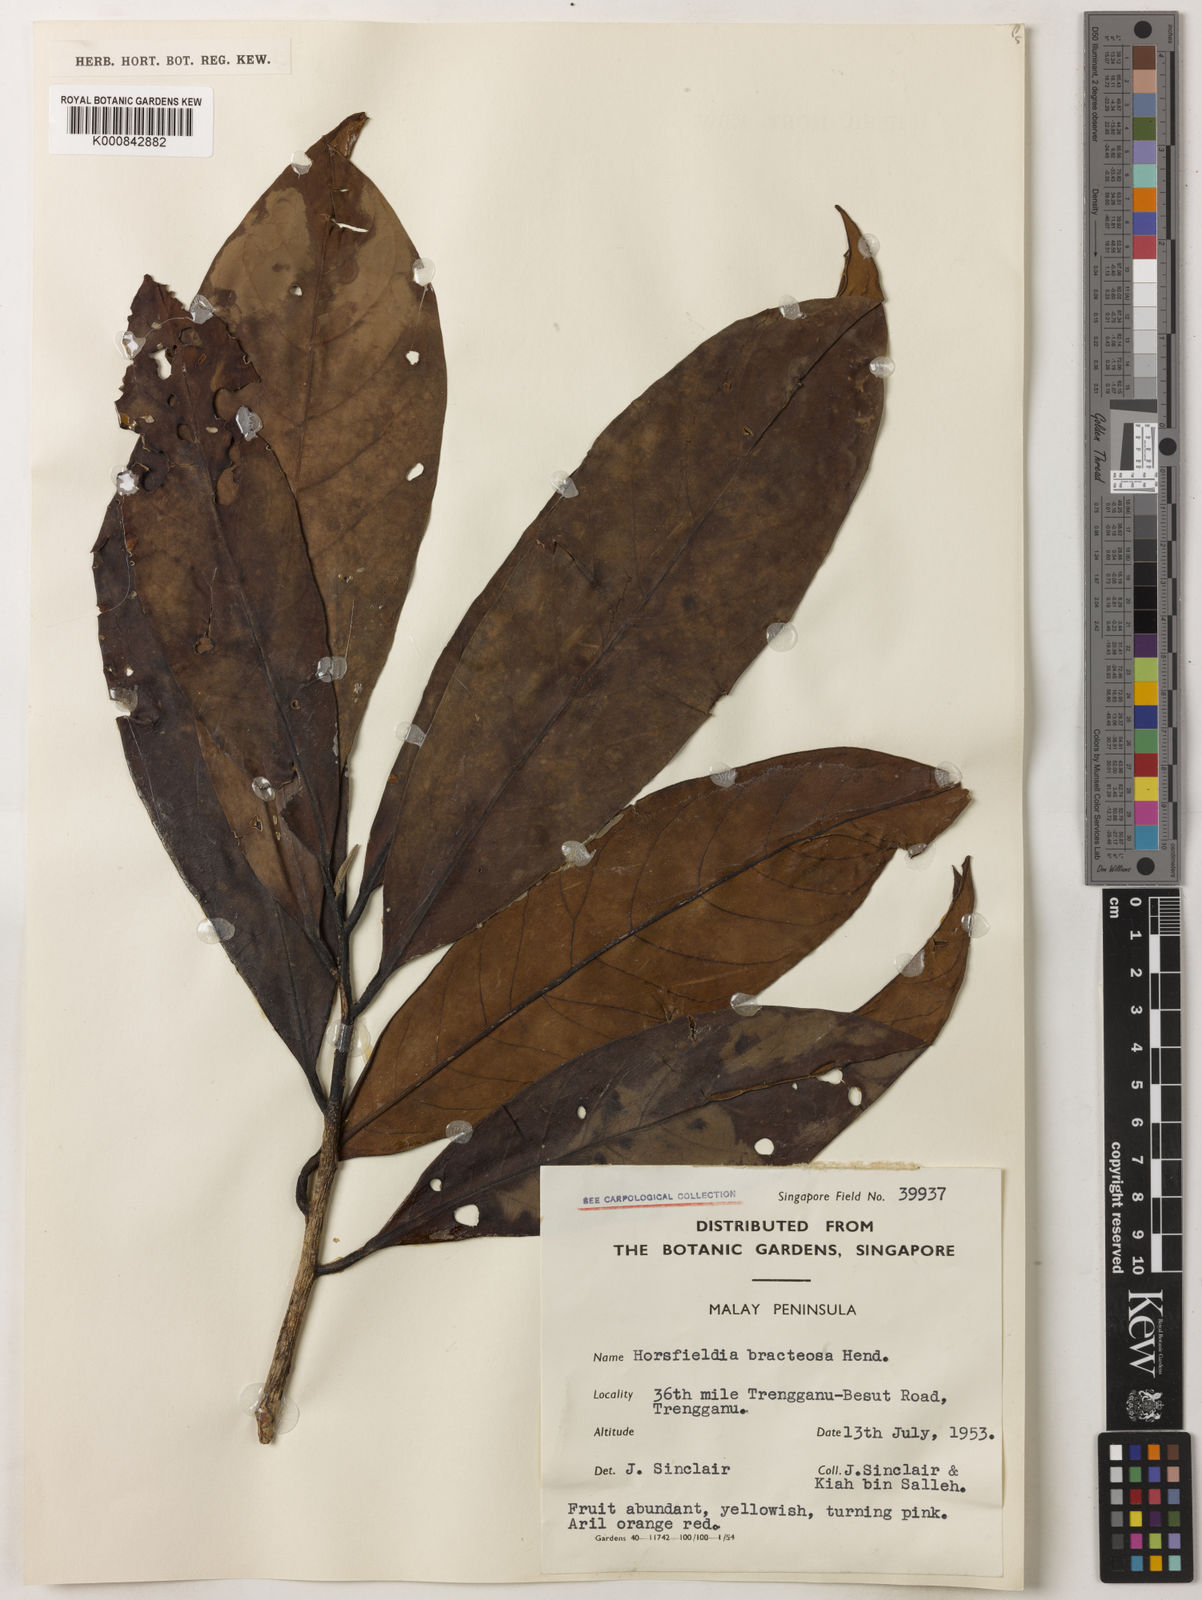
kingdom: Plantae
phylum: Tracheophyta
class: Magnoliopsida
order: Magnoliales
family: Myristicaceae
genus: Horsfieldia
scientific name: Horsfieldia sucosa
